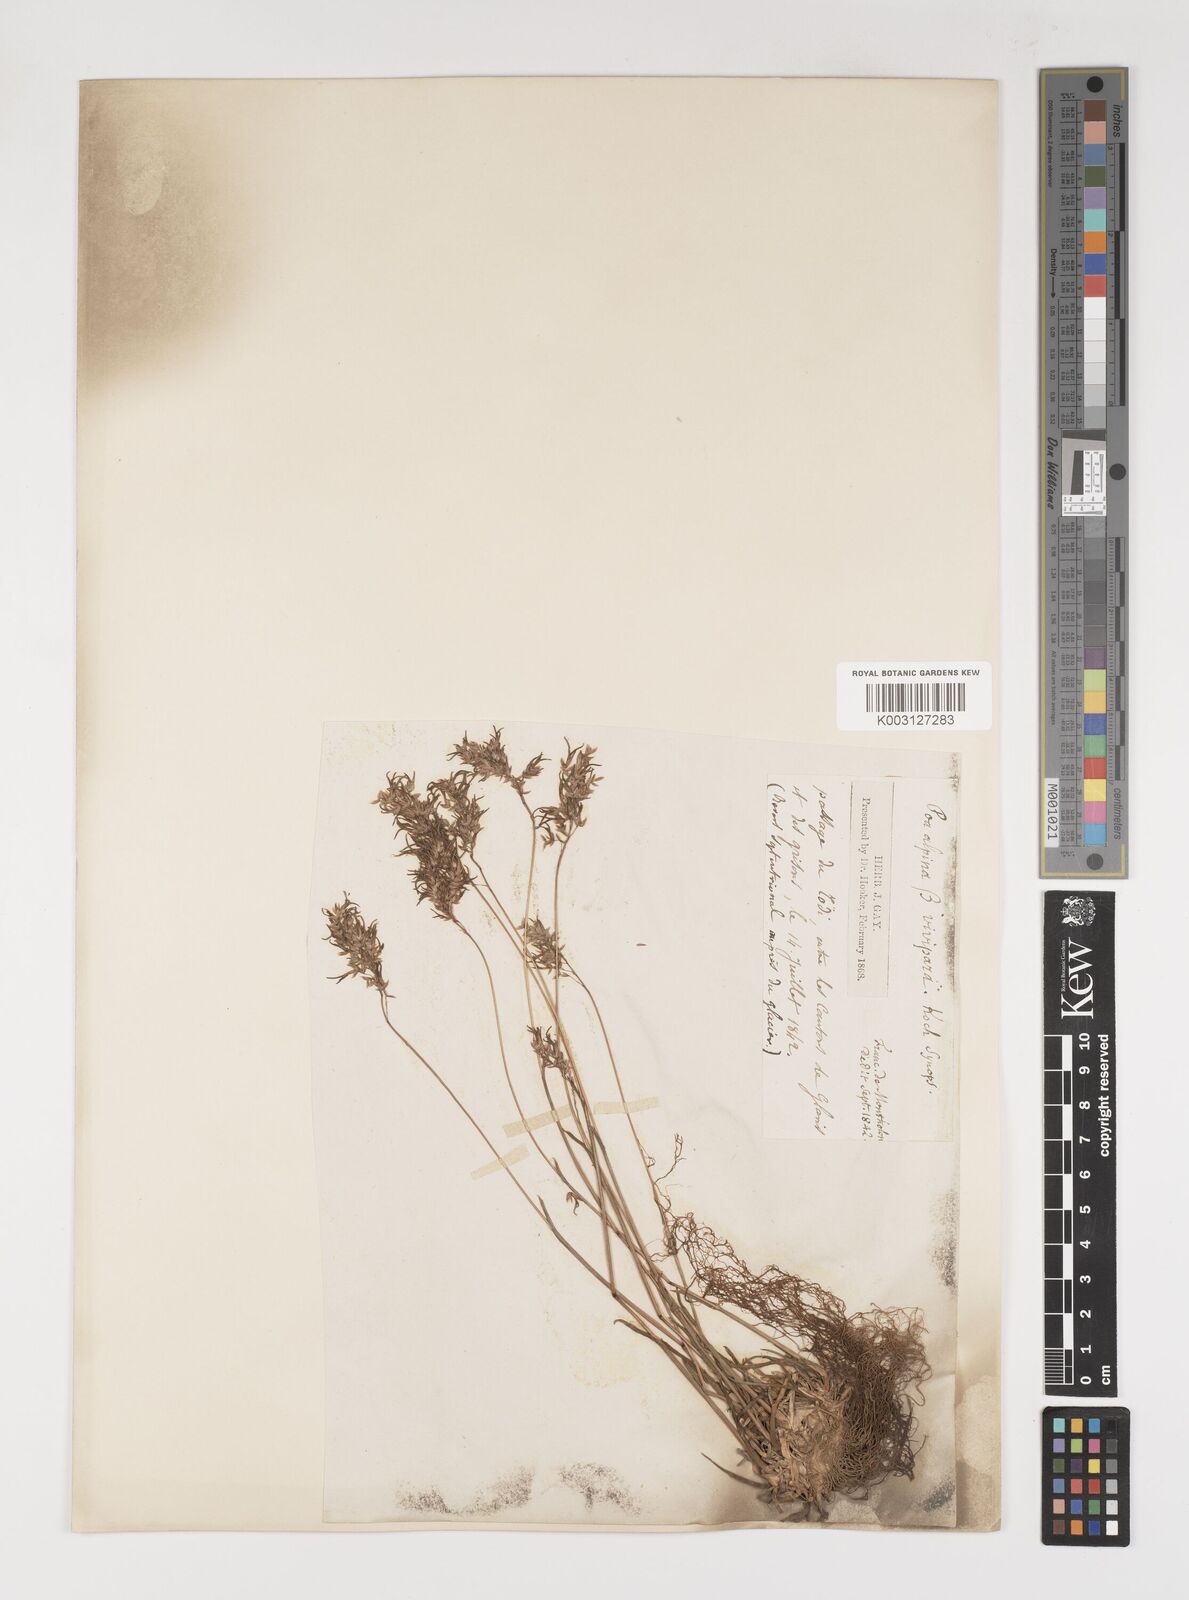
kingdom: Plantae
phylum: Tracheophyta
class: Liliopsida
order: Poales
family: Poaceae
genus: Poa
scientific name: Poa alpina
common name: Alpine bluegrass
